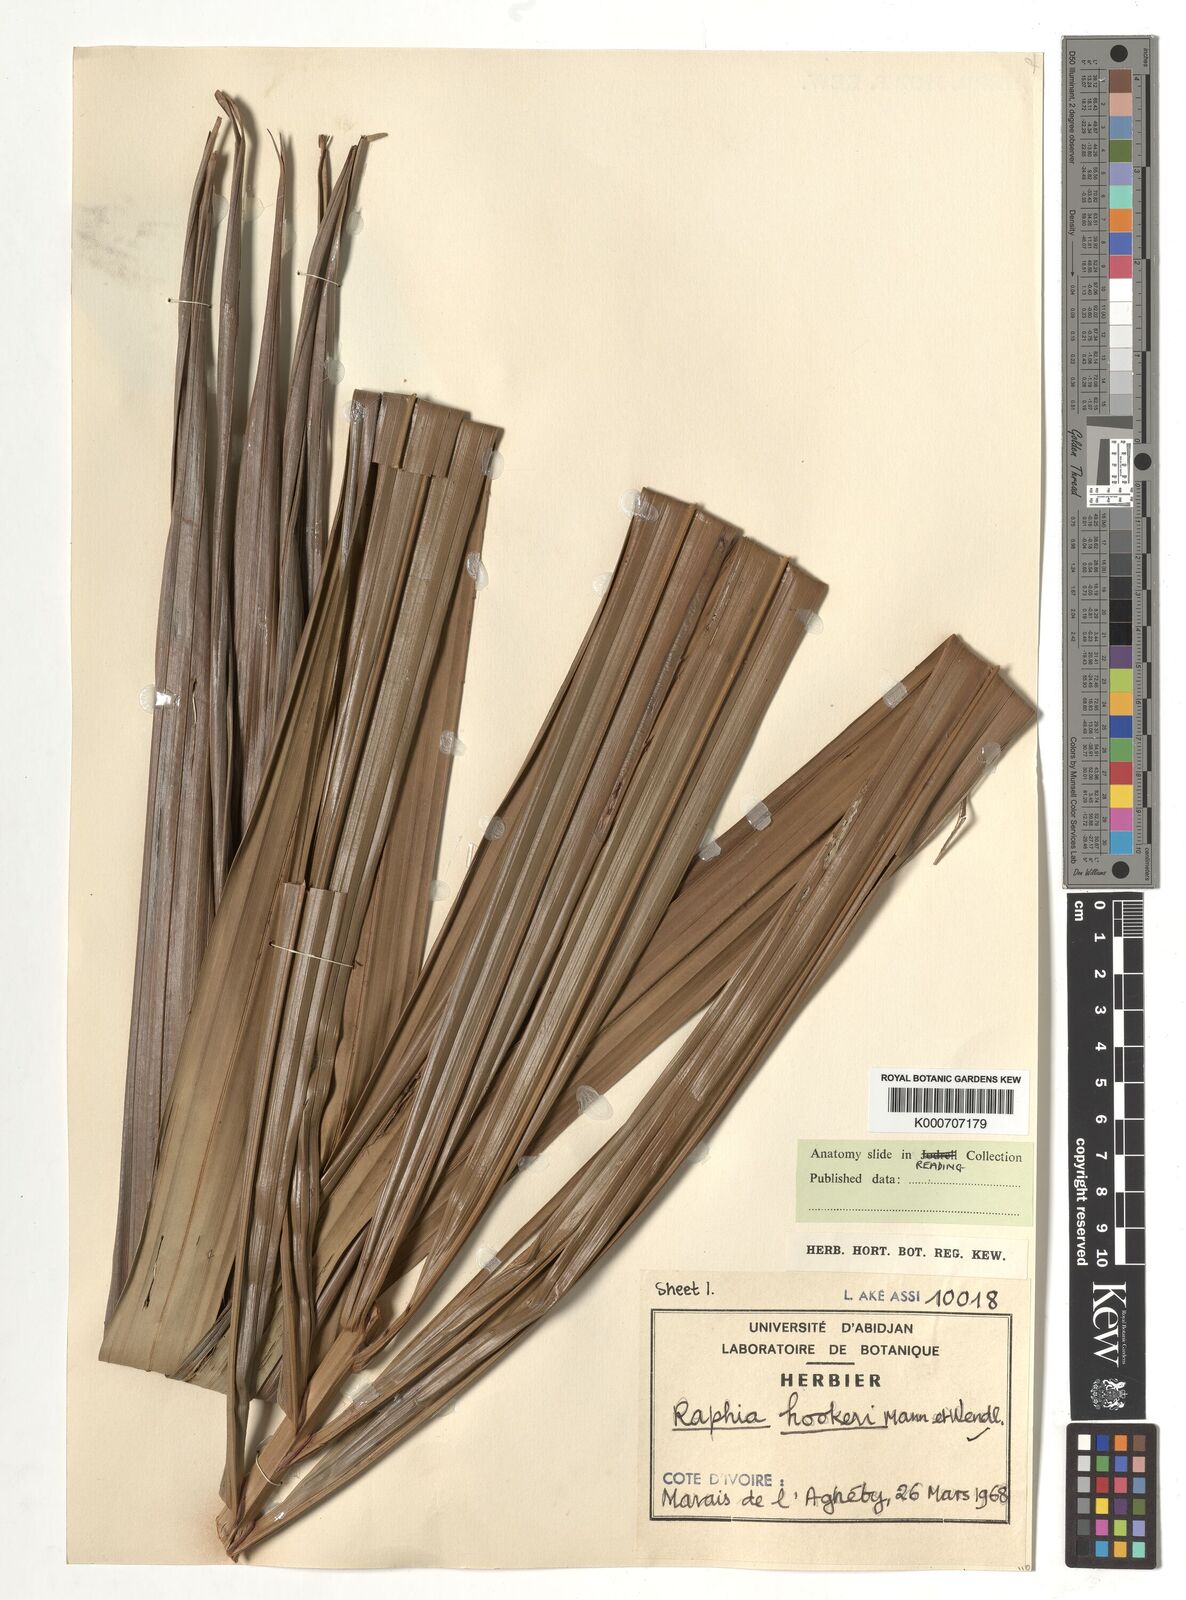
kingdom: Plantae
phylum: Tracheophyta
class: Liliopsida
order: Arecales
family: Arecaceae
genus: Raphia
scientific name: Raphia hookeri
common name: Wine palm
